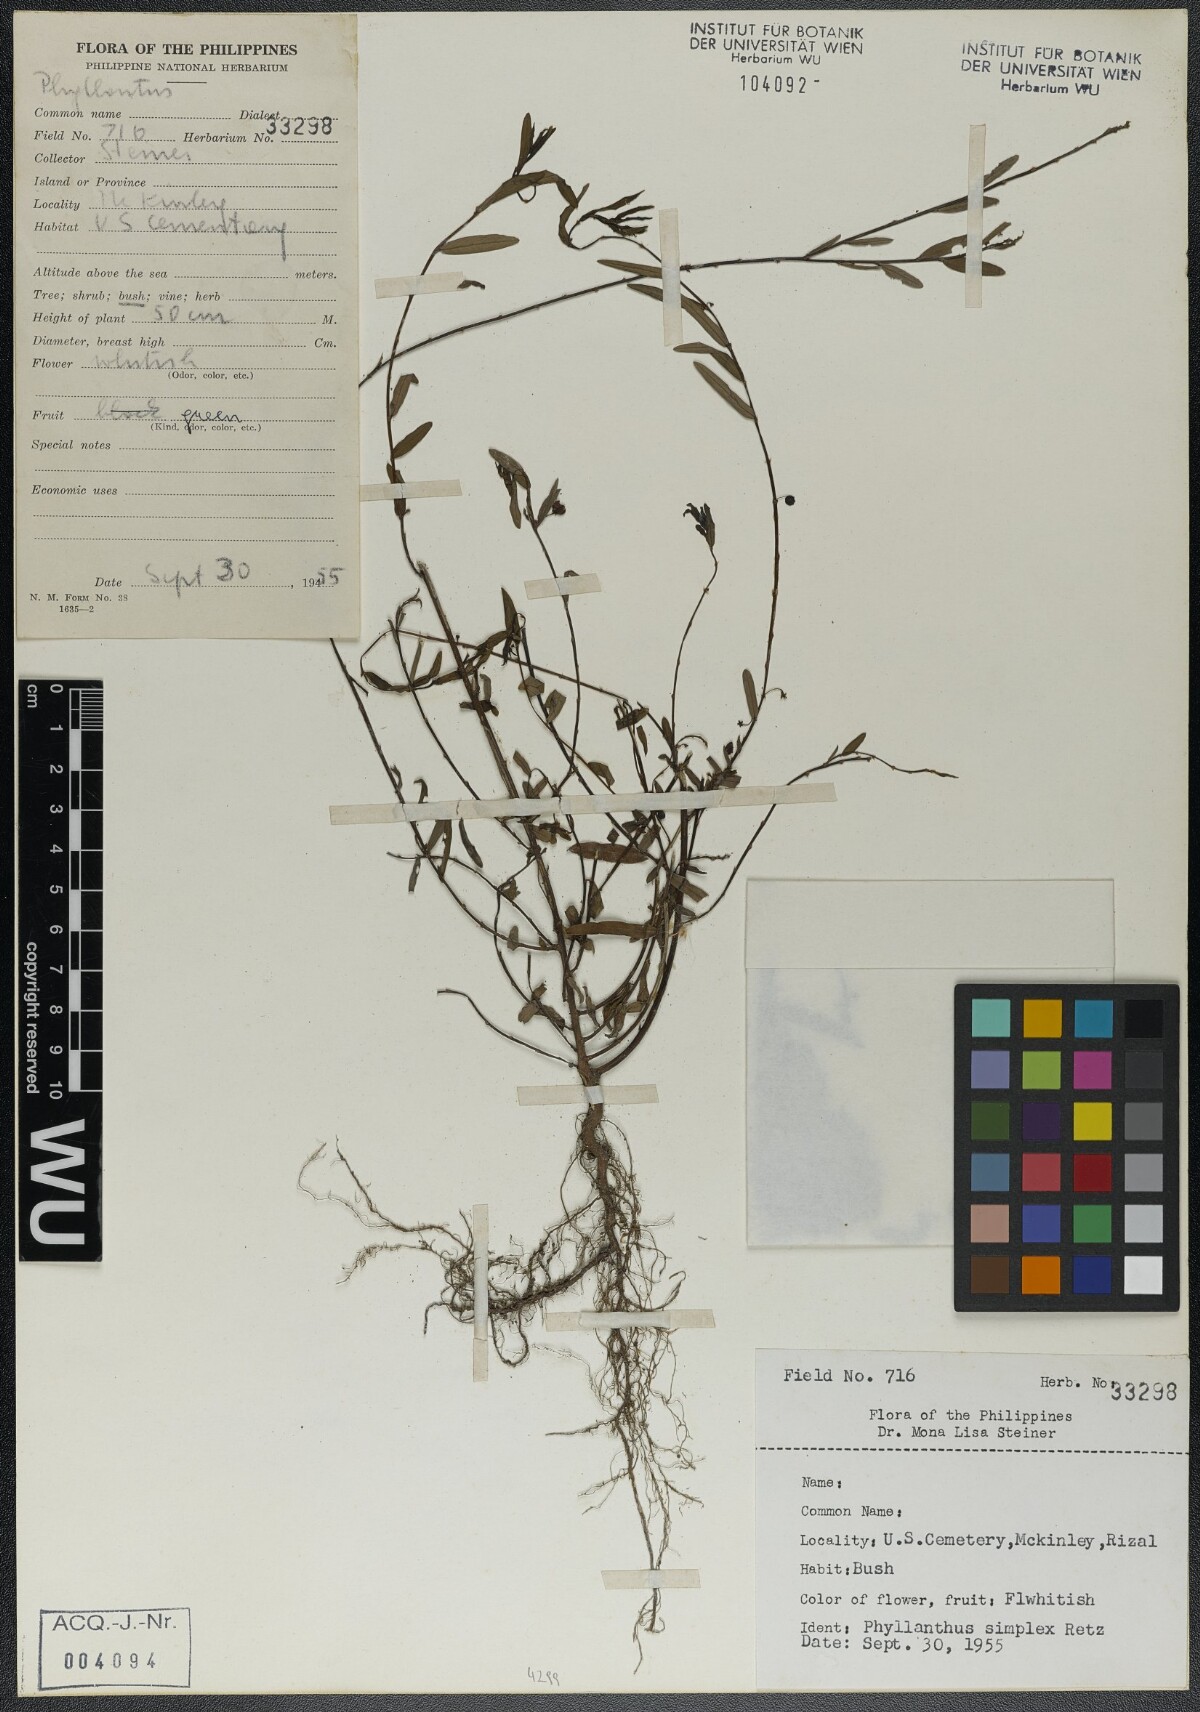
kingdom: Plantae
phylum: Tracheophyta
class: Magnoliopsida
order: Malpighiales
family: Phyllanthaceae
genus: Phyllanthus
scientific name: Phyllanthus virgatus
